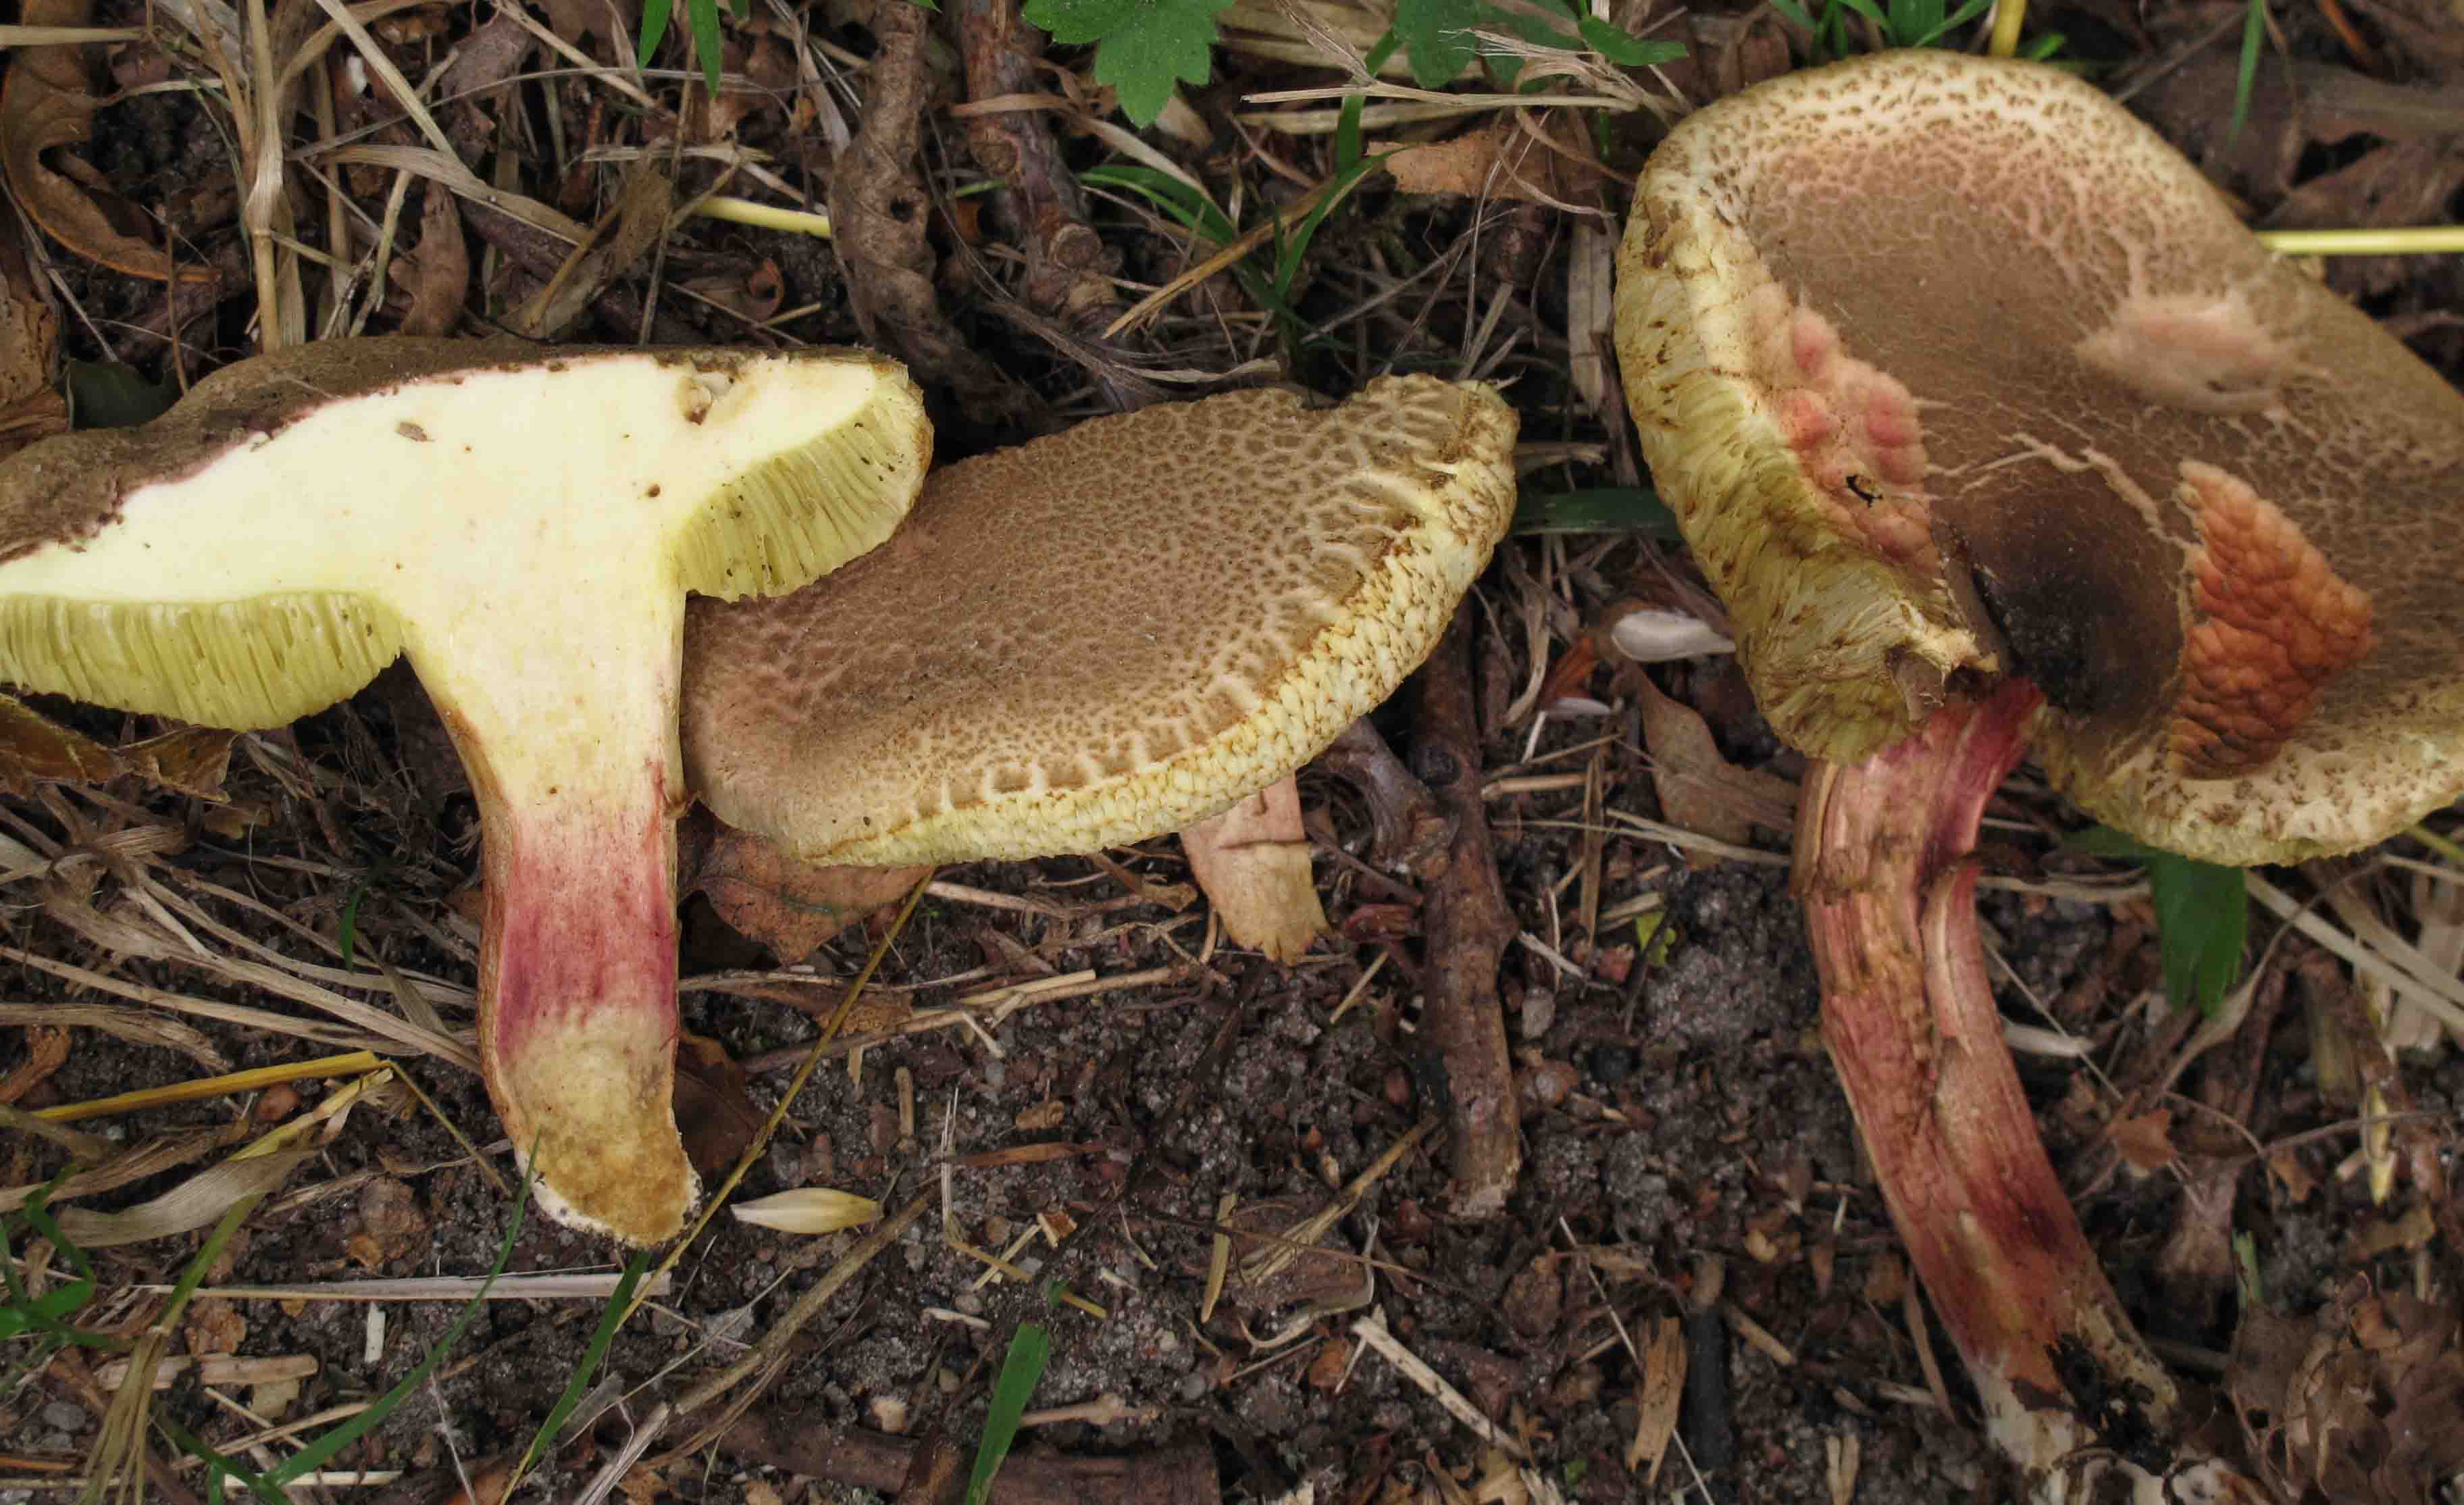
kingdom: Fungi
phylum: Basidiomycota
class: Agaricomycetes
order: Boletales
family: Boletaceae
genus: Xerocomellus
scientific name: Xerocomellus chrysenteron
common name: rødsprukken rørhat
